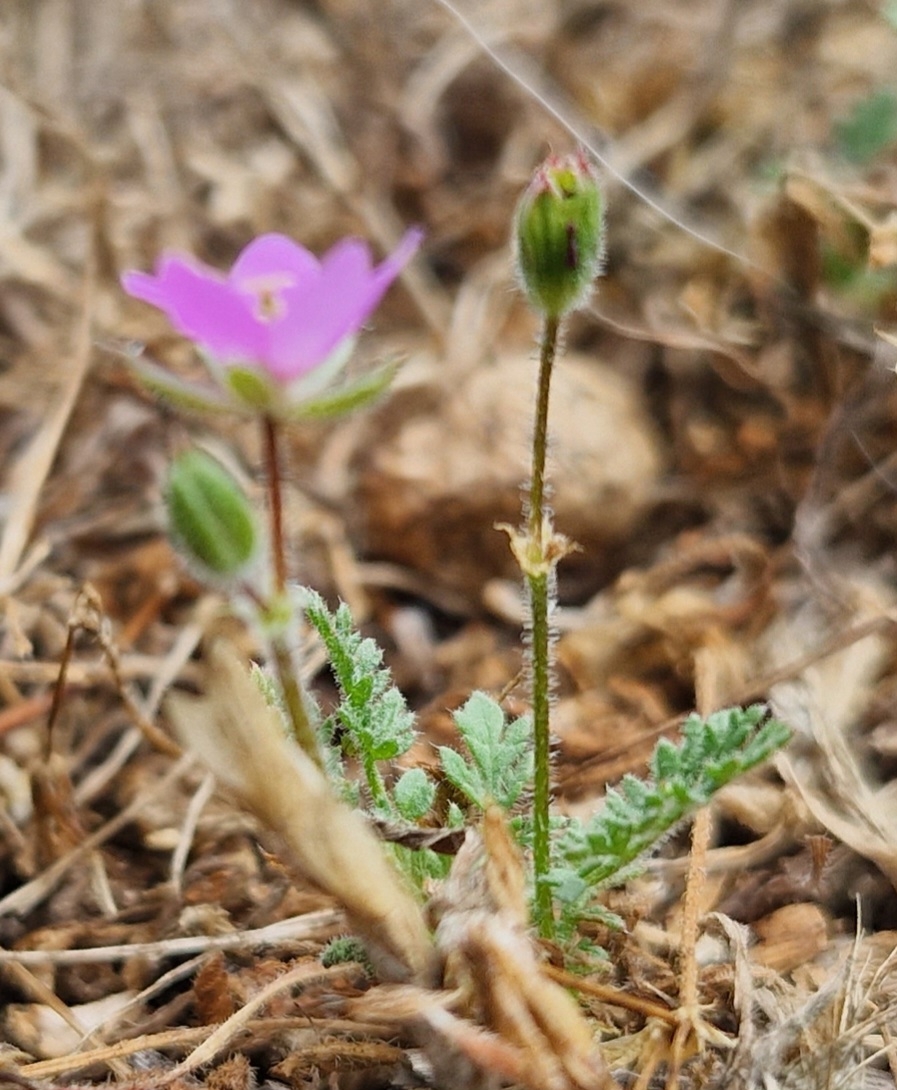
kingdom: Plantae
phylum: Tracheophyta
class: Magnoliopsida
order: Geraniales
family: Geraniaceae
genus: Erodium
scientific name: Erodium cicutarium
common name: Hejrenæb
